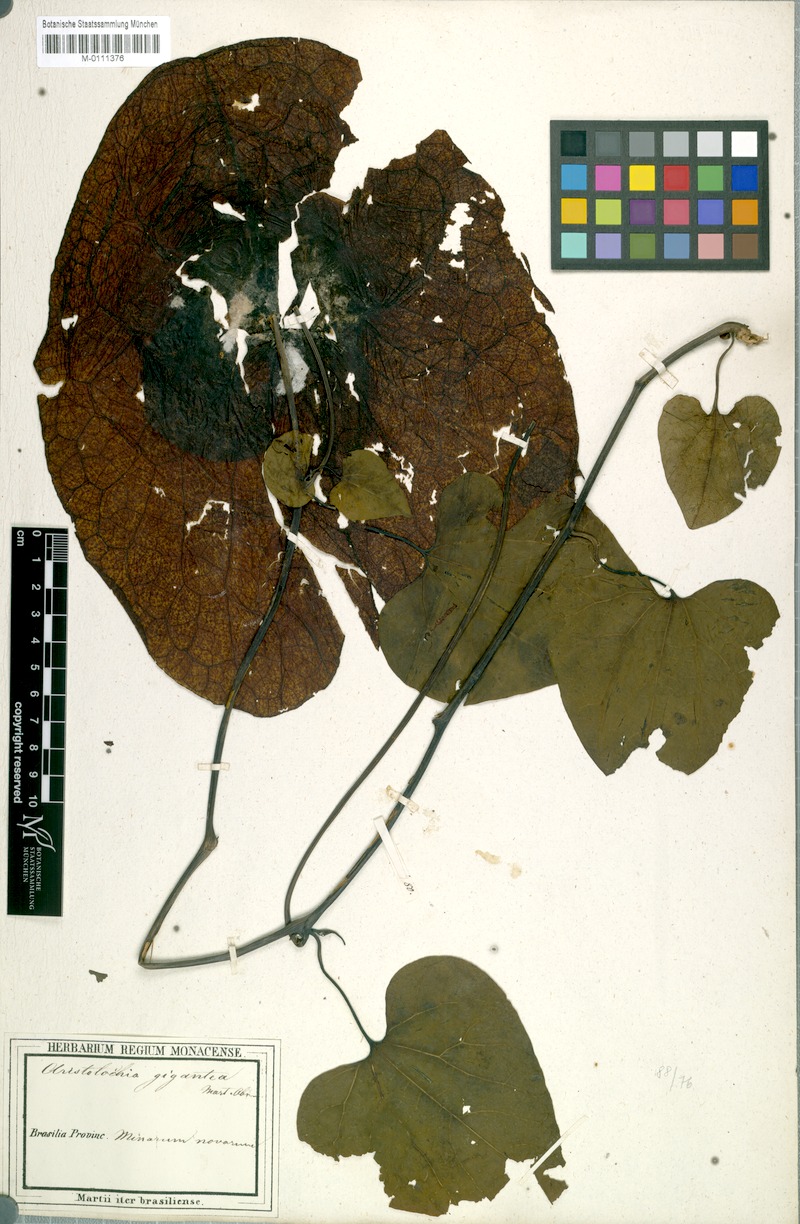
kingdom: Plantae
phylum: Tracheophyta
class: Magnoliopsida
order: Piperales
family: Aristolochiaceae
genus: Aristolochia
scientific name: Aristolochia gigantea
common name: Duckflower
